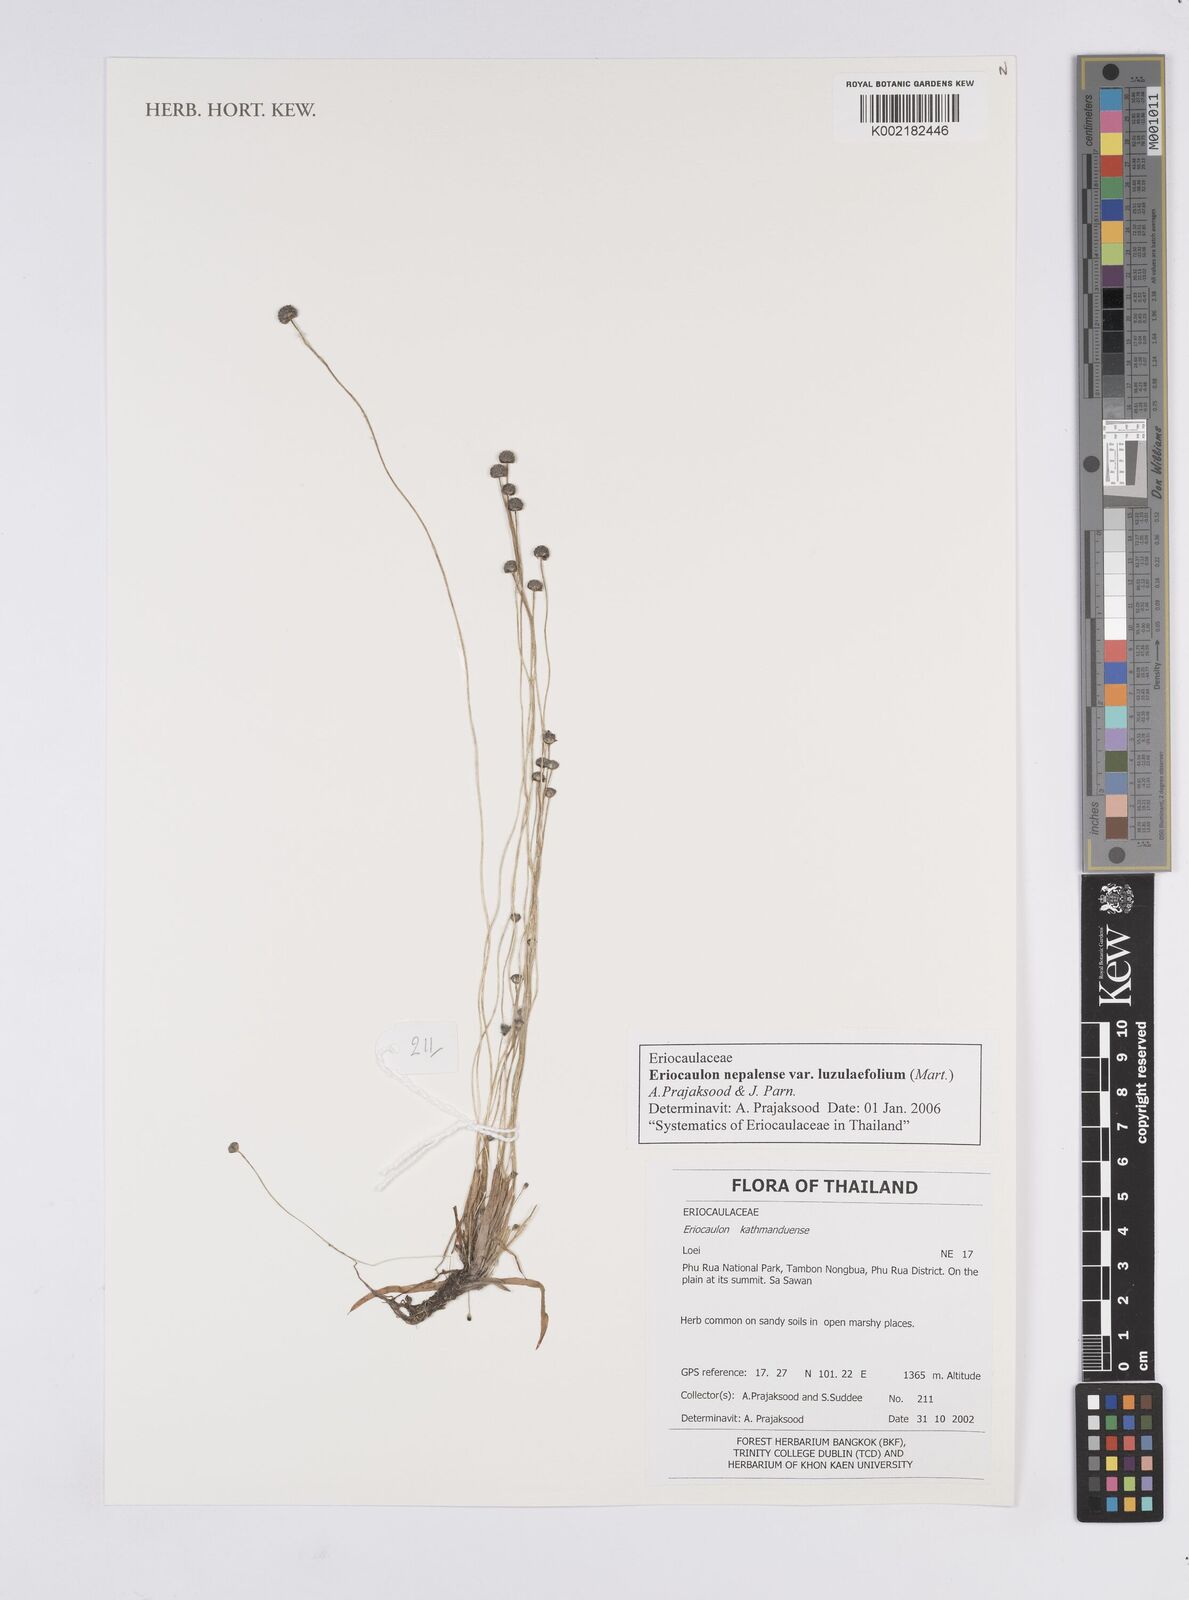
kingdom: Plantae
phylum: Tracheophyta
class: Liliopsida
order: Poales
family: Eriocaulaceae
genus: Eriocaulon
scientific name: Eriocaulon nepalense
